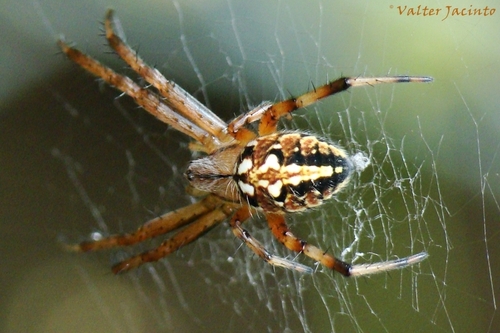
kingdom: Animalia
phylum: Arthropoda
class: Arachnida
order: Araneae
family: Araneidae
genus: Neoscona
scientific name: Neoscona adianta
